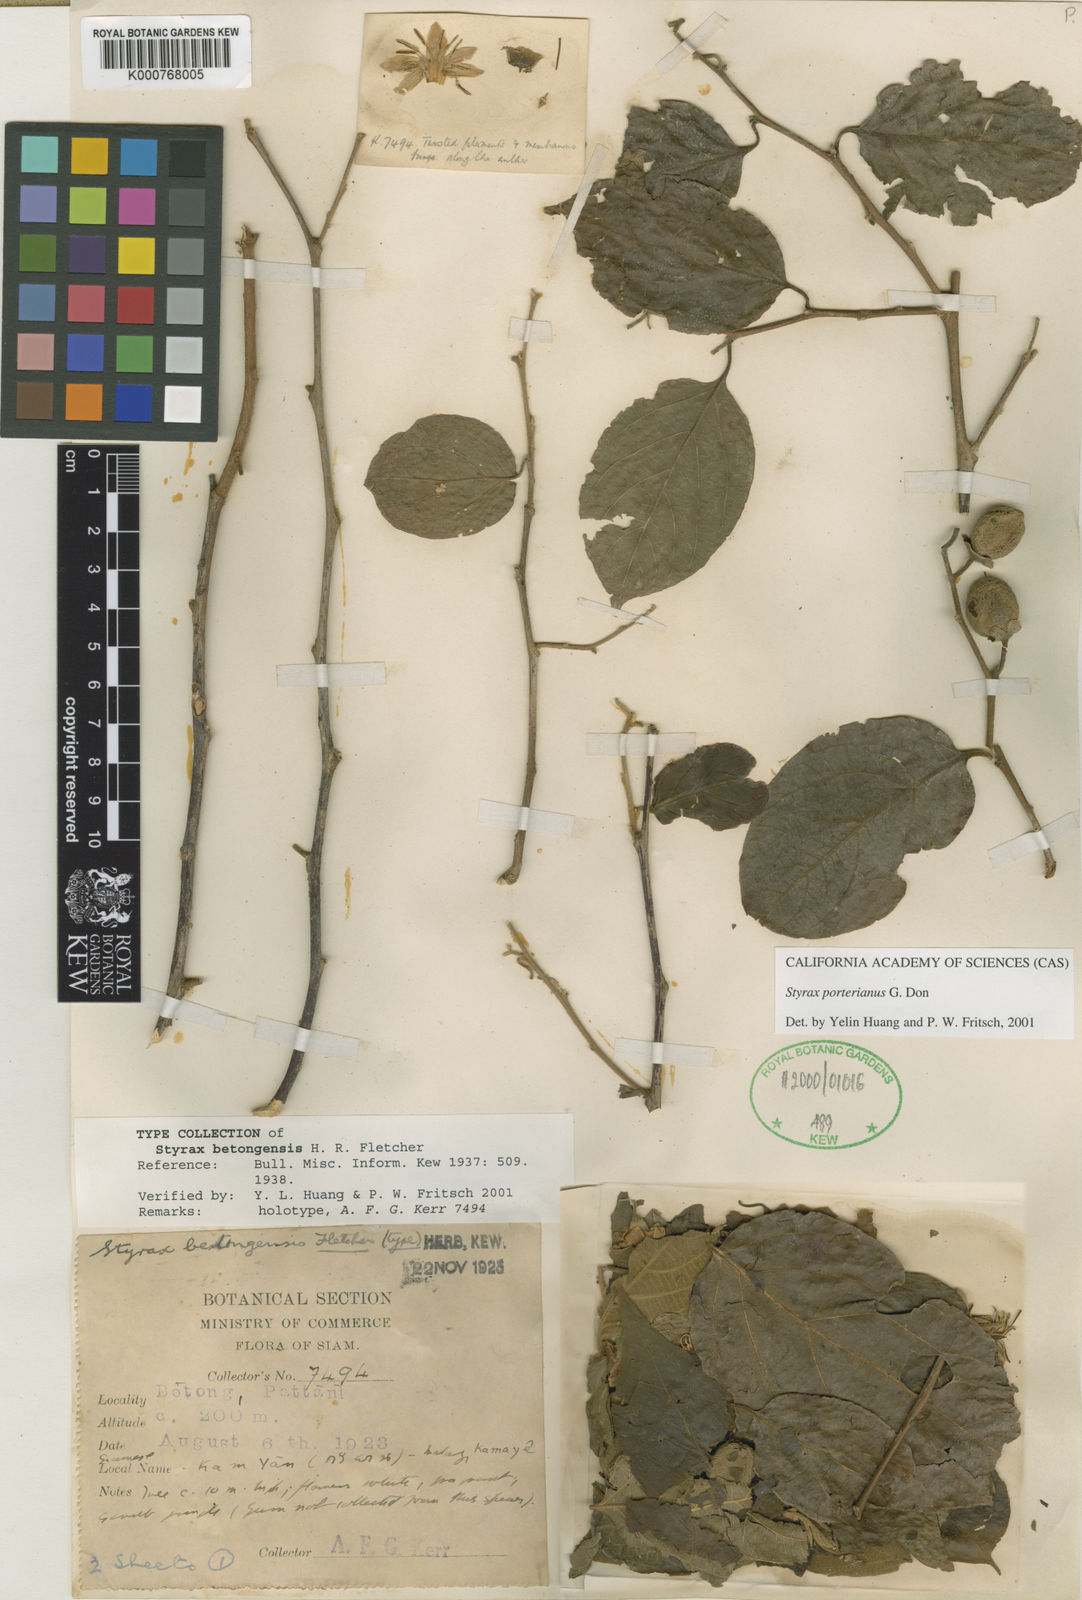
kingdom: Plantae
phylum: Tracheophyta
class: Magnoliopsida
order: Ericales
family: Styracaceae
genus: Styrax
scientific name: Styrax
